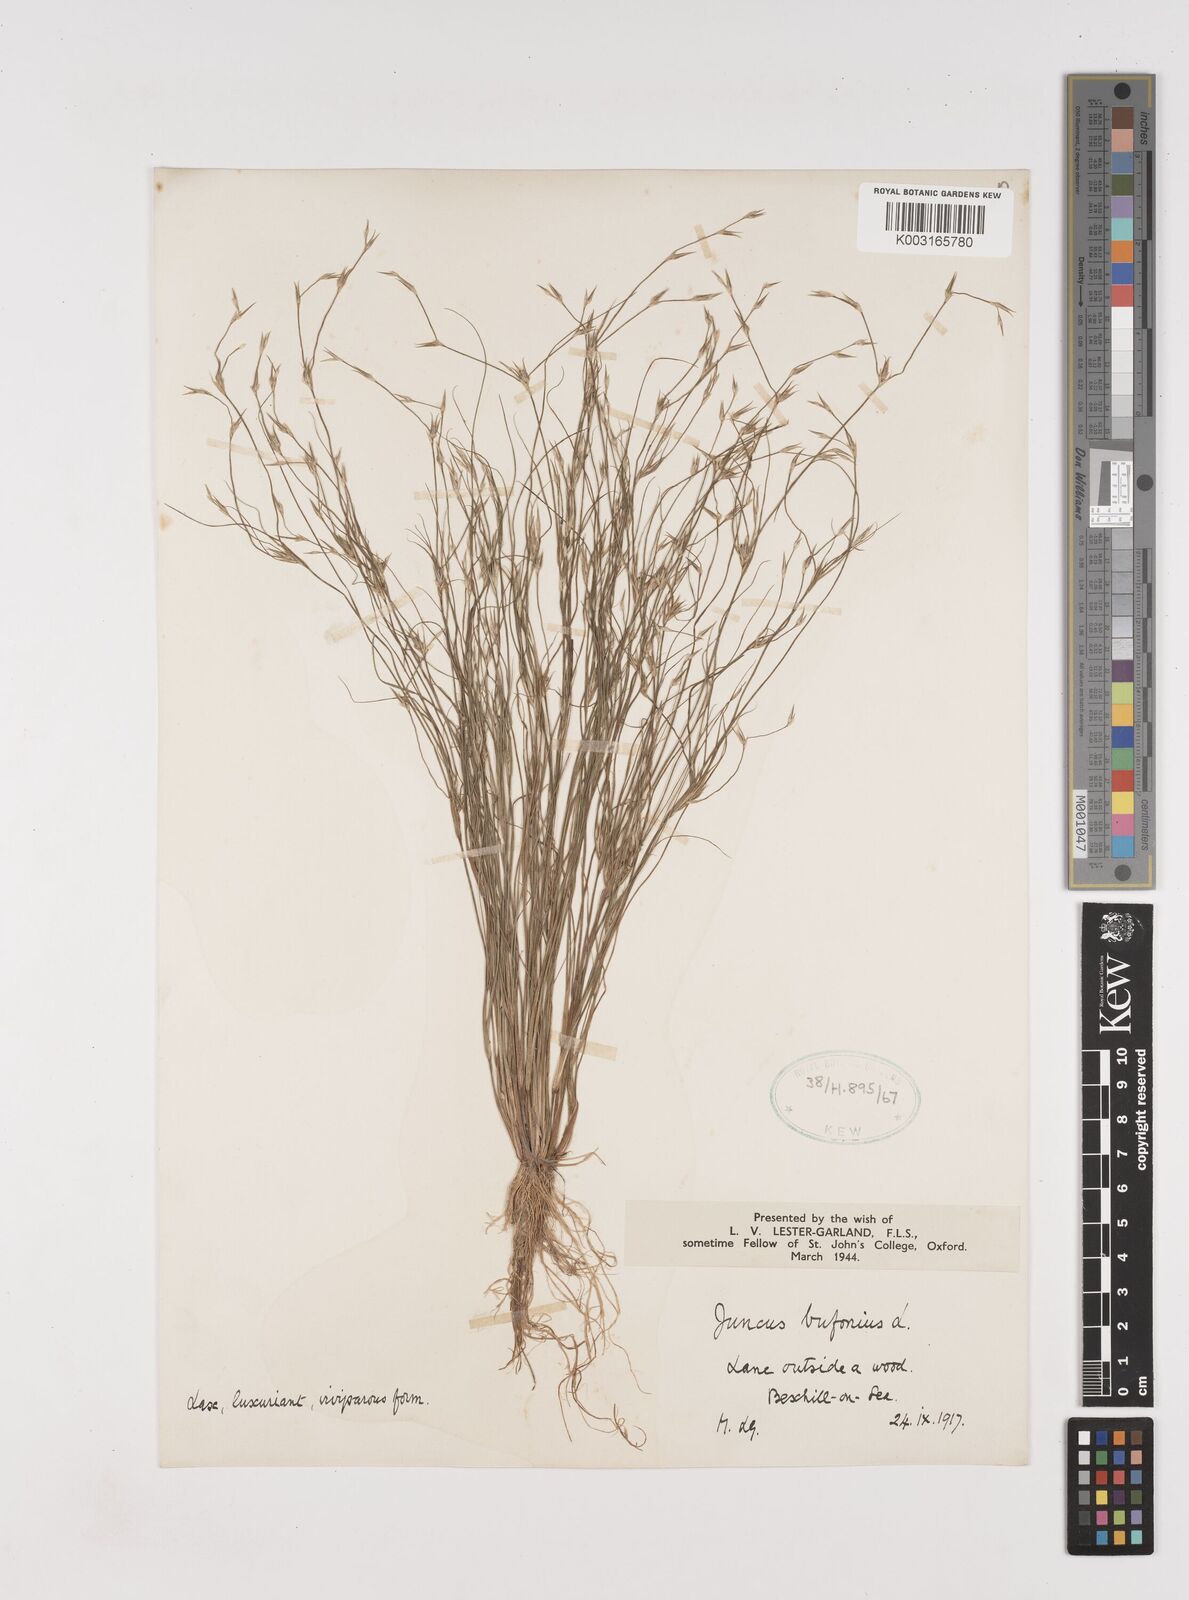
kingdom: Plantae
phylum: Tracheophyta
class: Liliopsida
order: Poales
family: Juncaceae
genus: Juncus
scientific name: Juncus bufonius
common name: Toad rush
